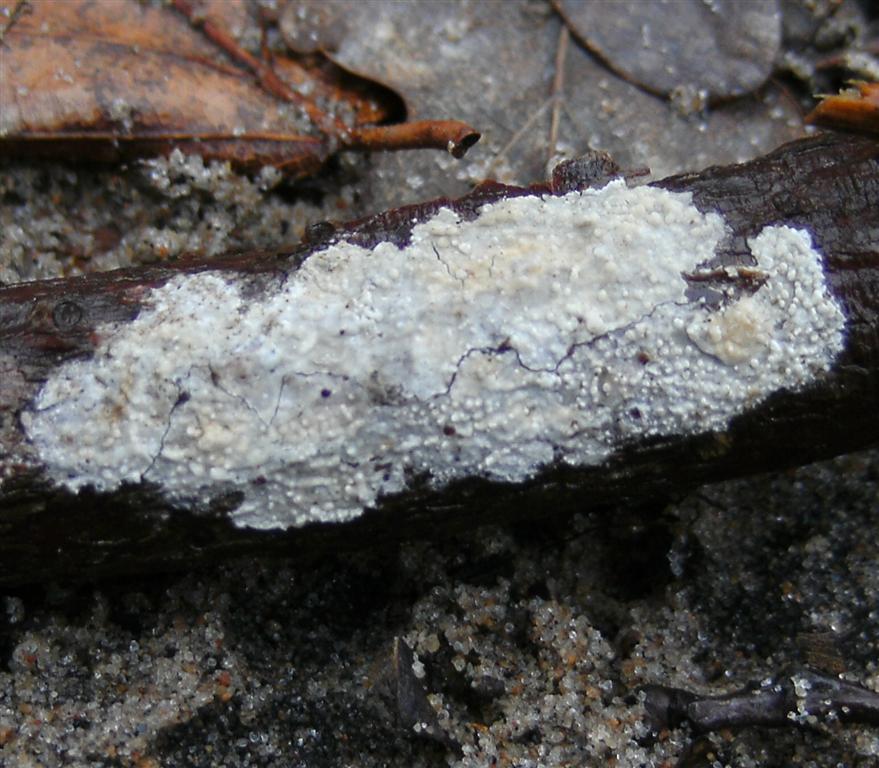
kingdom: Fungi
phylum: Basidiomycota
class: Agaricomycetes
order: Hymenochaetales
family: Schizoporaceae
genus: Xylodon
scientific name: Xylodon radula
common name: grovtandet kalkskind
